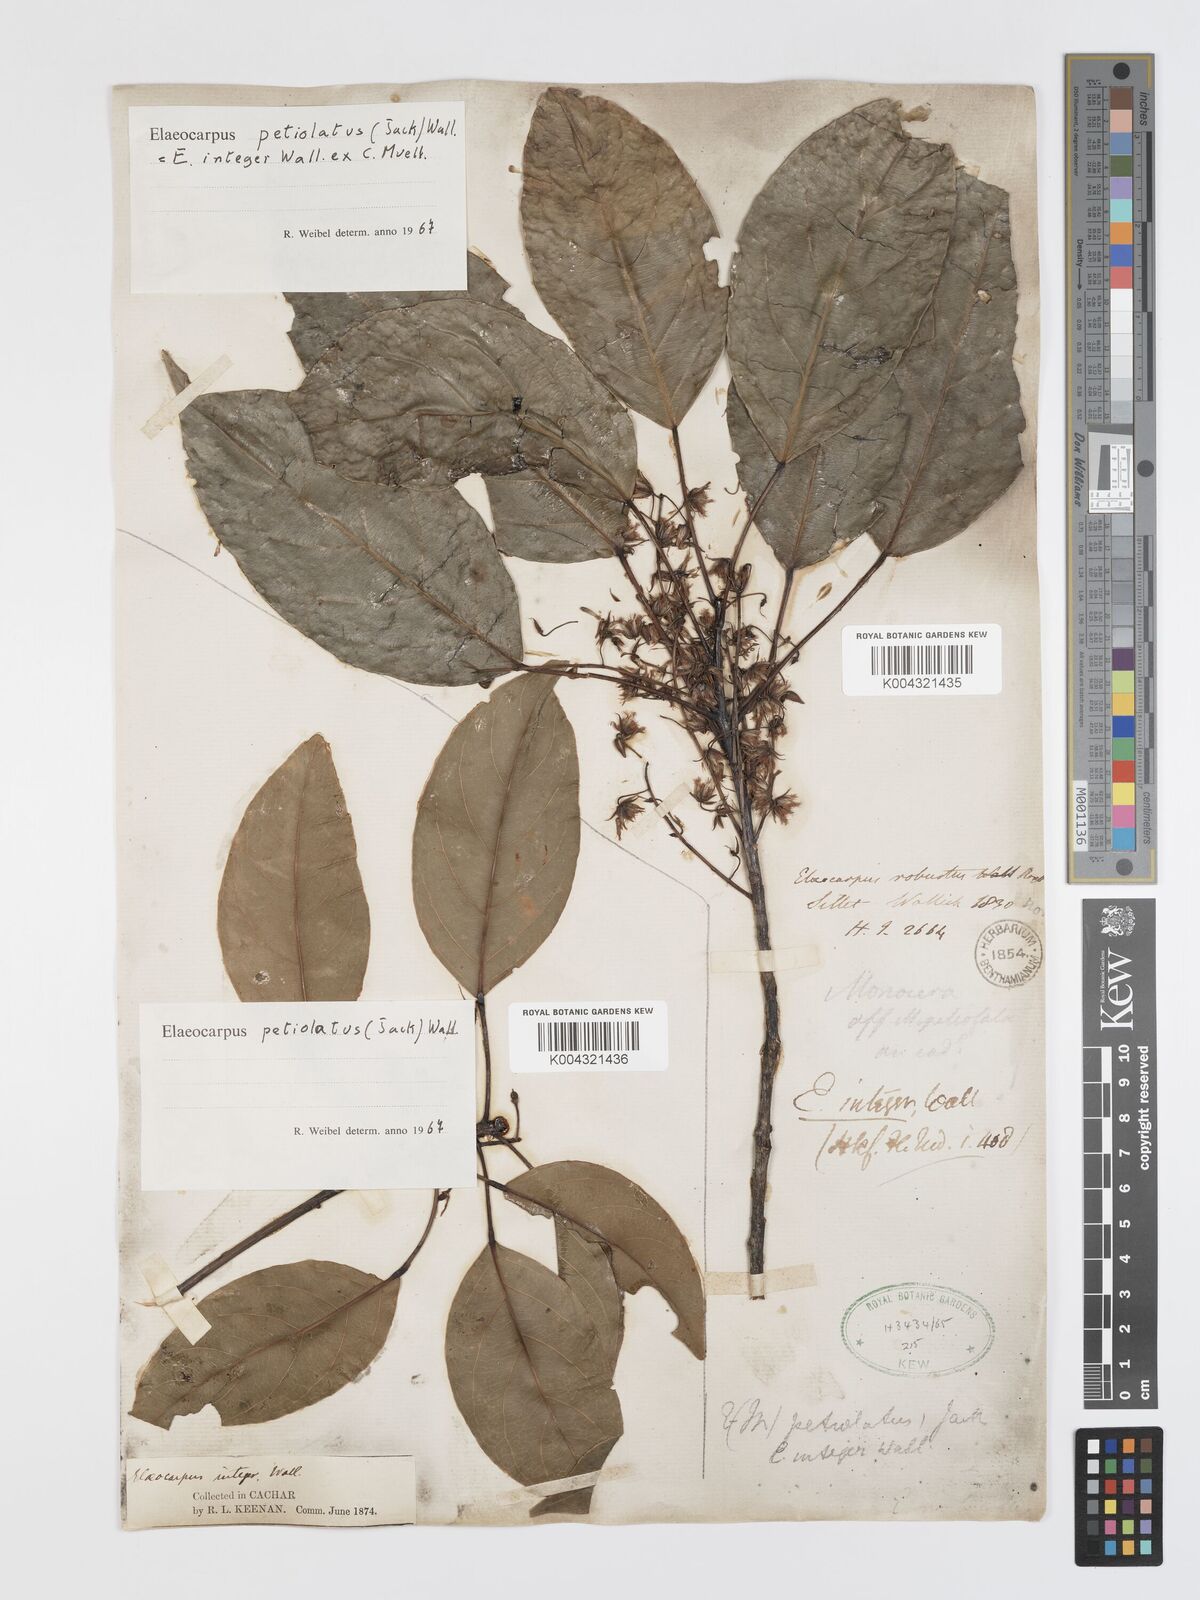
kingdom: Plantae
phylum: Tracheophyta
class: Magnoliopsida
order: Oxalidales
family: Elaeocarpaceae
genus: Elaeocarpus
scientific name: Elaeocarpus petiolatus
